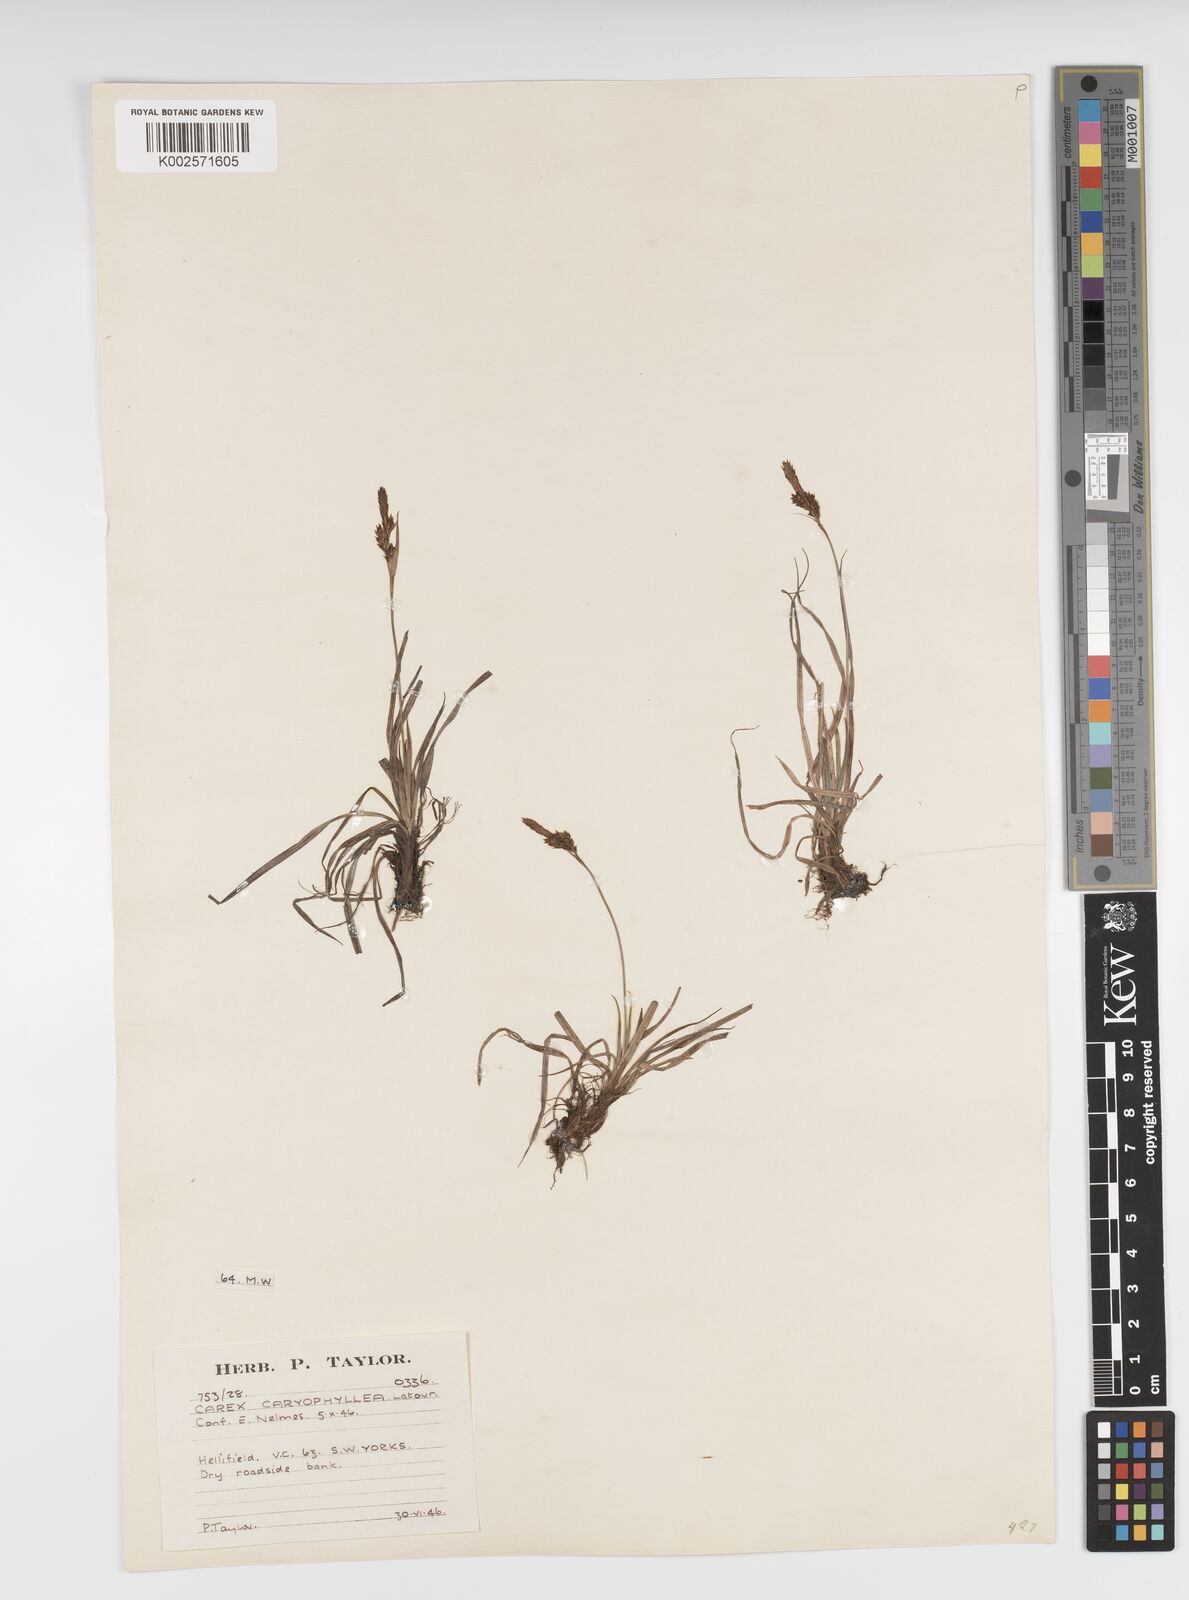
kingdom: Plantae
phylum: Tracheophyta
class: Liliopsida
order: Poales
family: Cyperaceae
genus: Carex
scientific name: Carex caryophyllea
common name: Spring sedge
